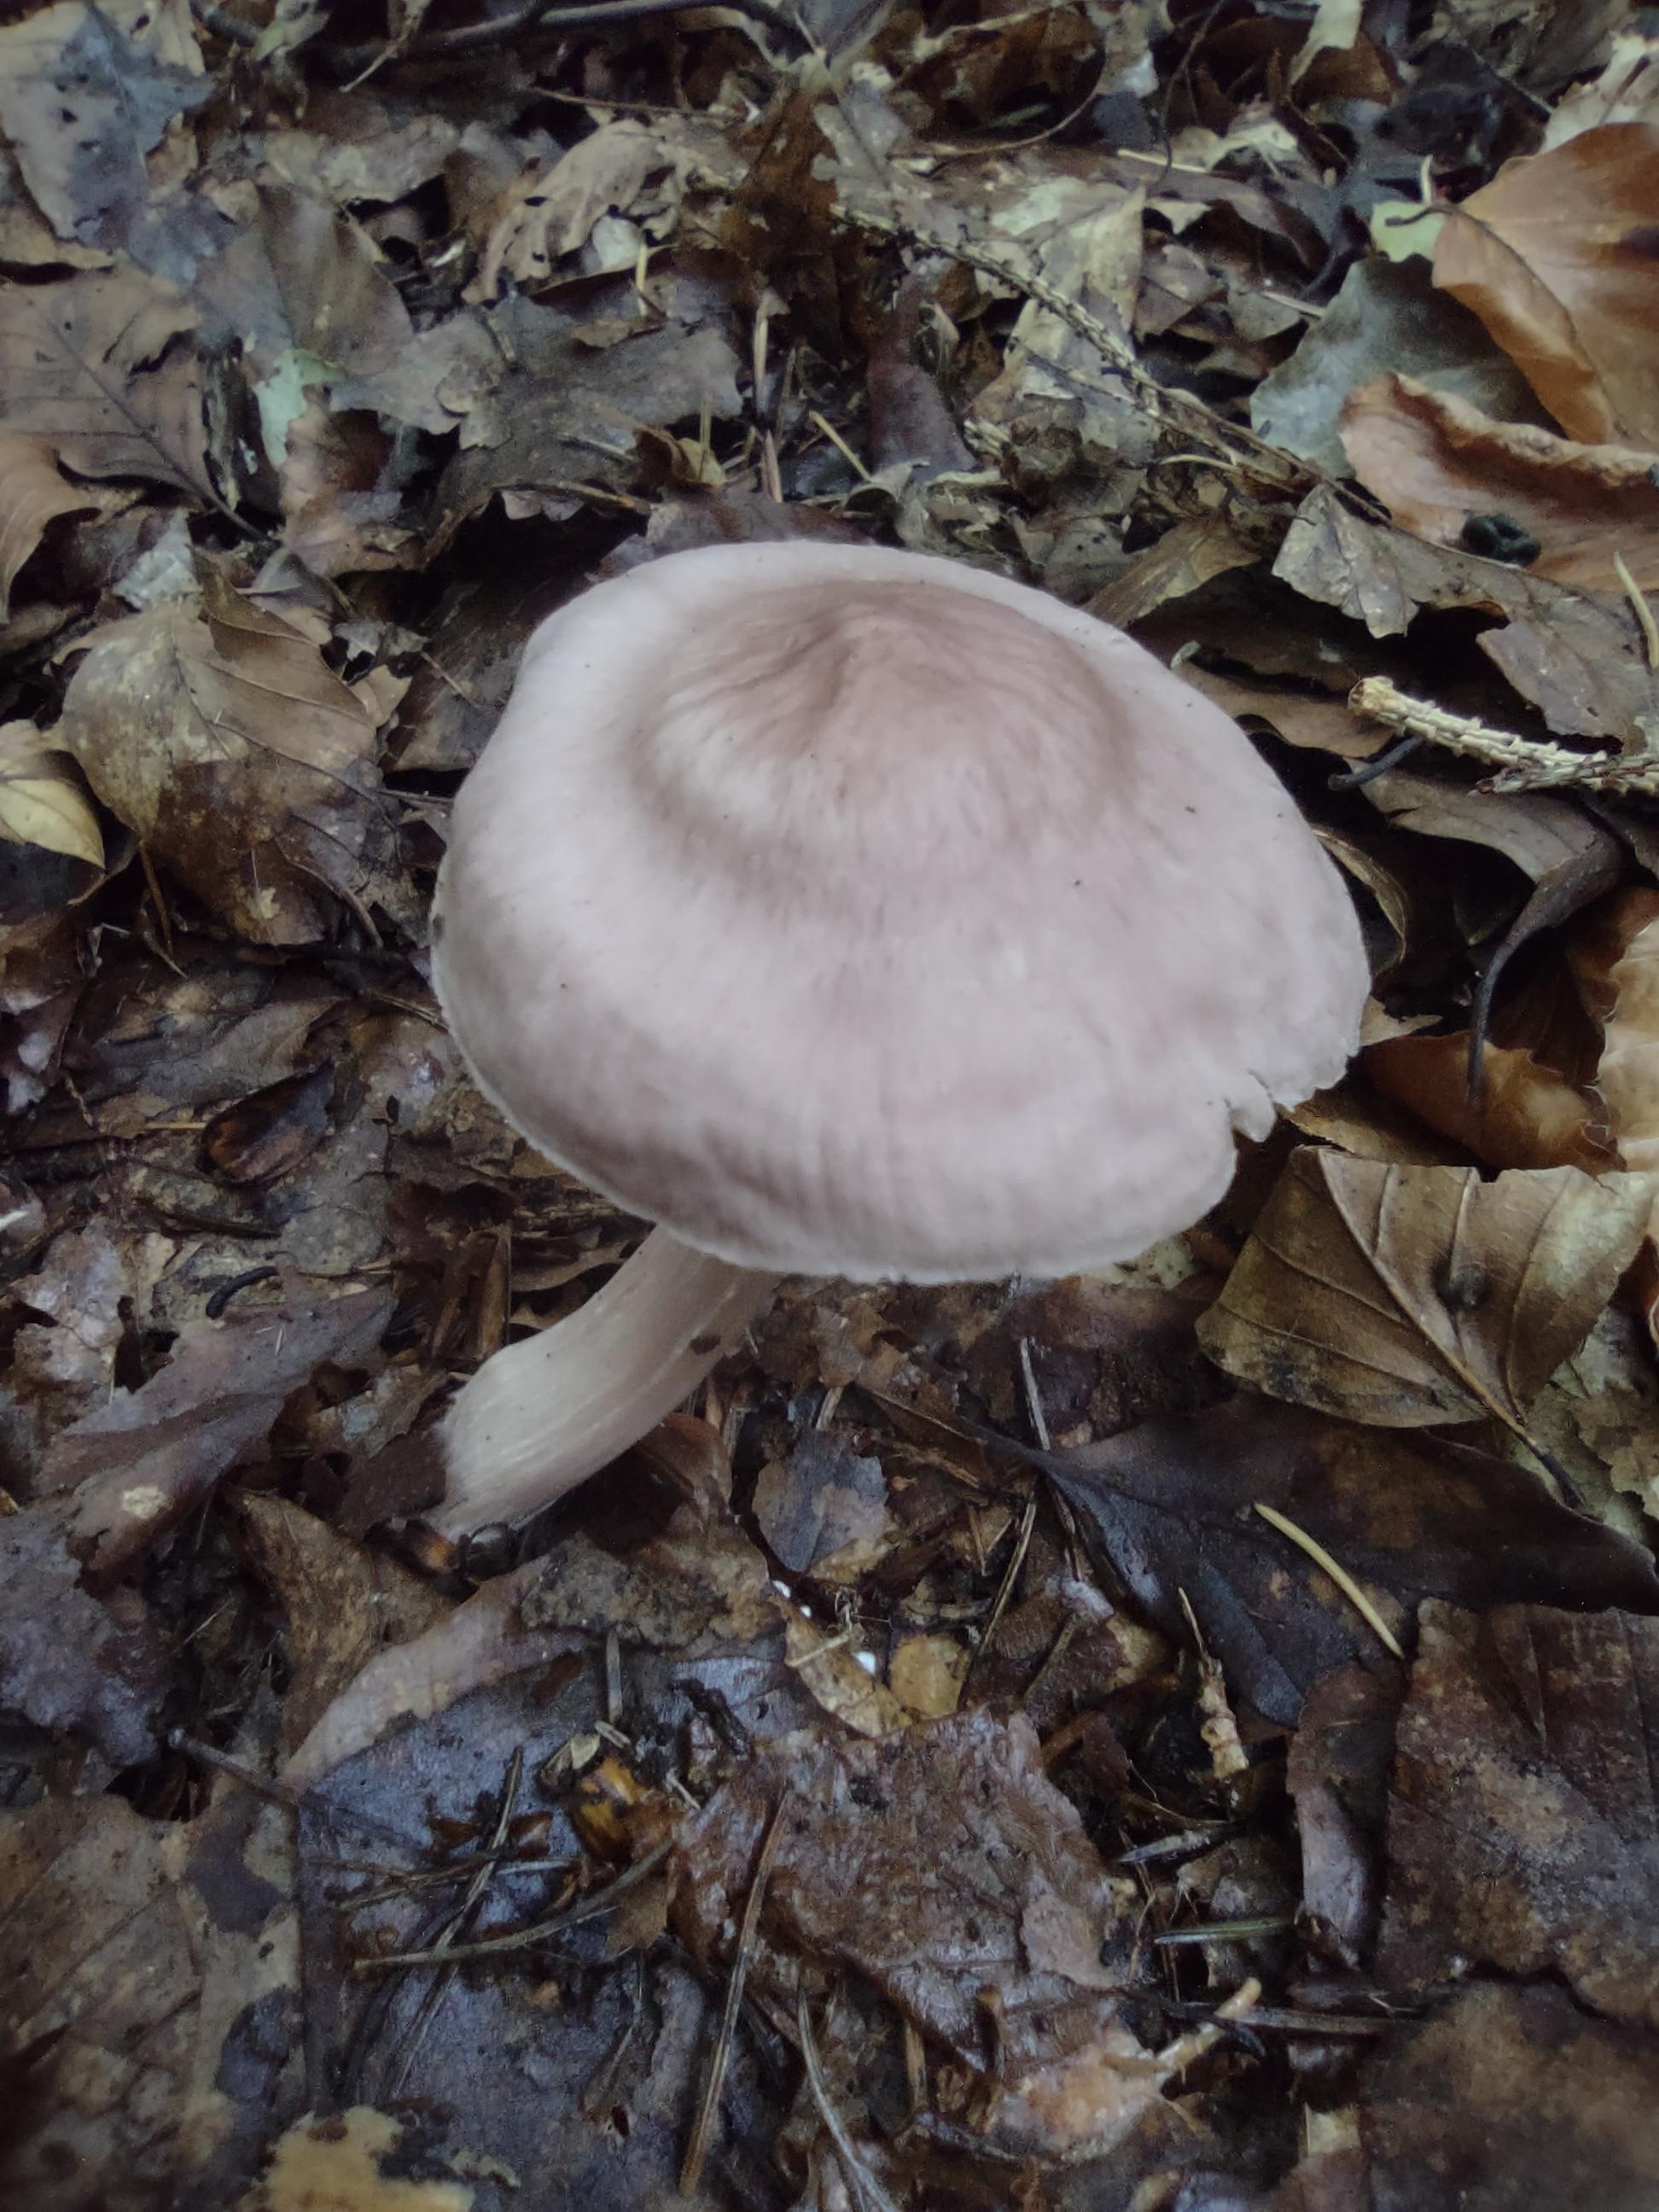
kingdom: Fungi
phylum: Basidiomycota
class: Agaricomycetes
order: Agaricales
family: Mycenaceae
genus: Mycena
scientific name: Mycena rosea
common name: rosa huesvamp
